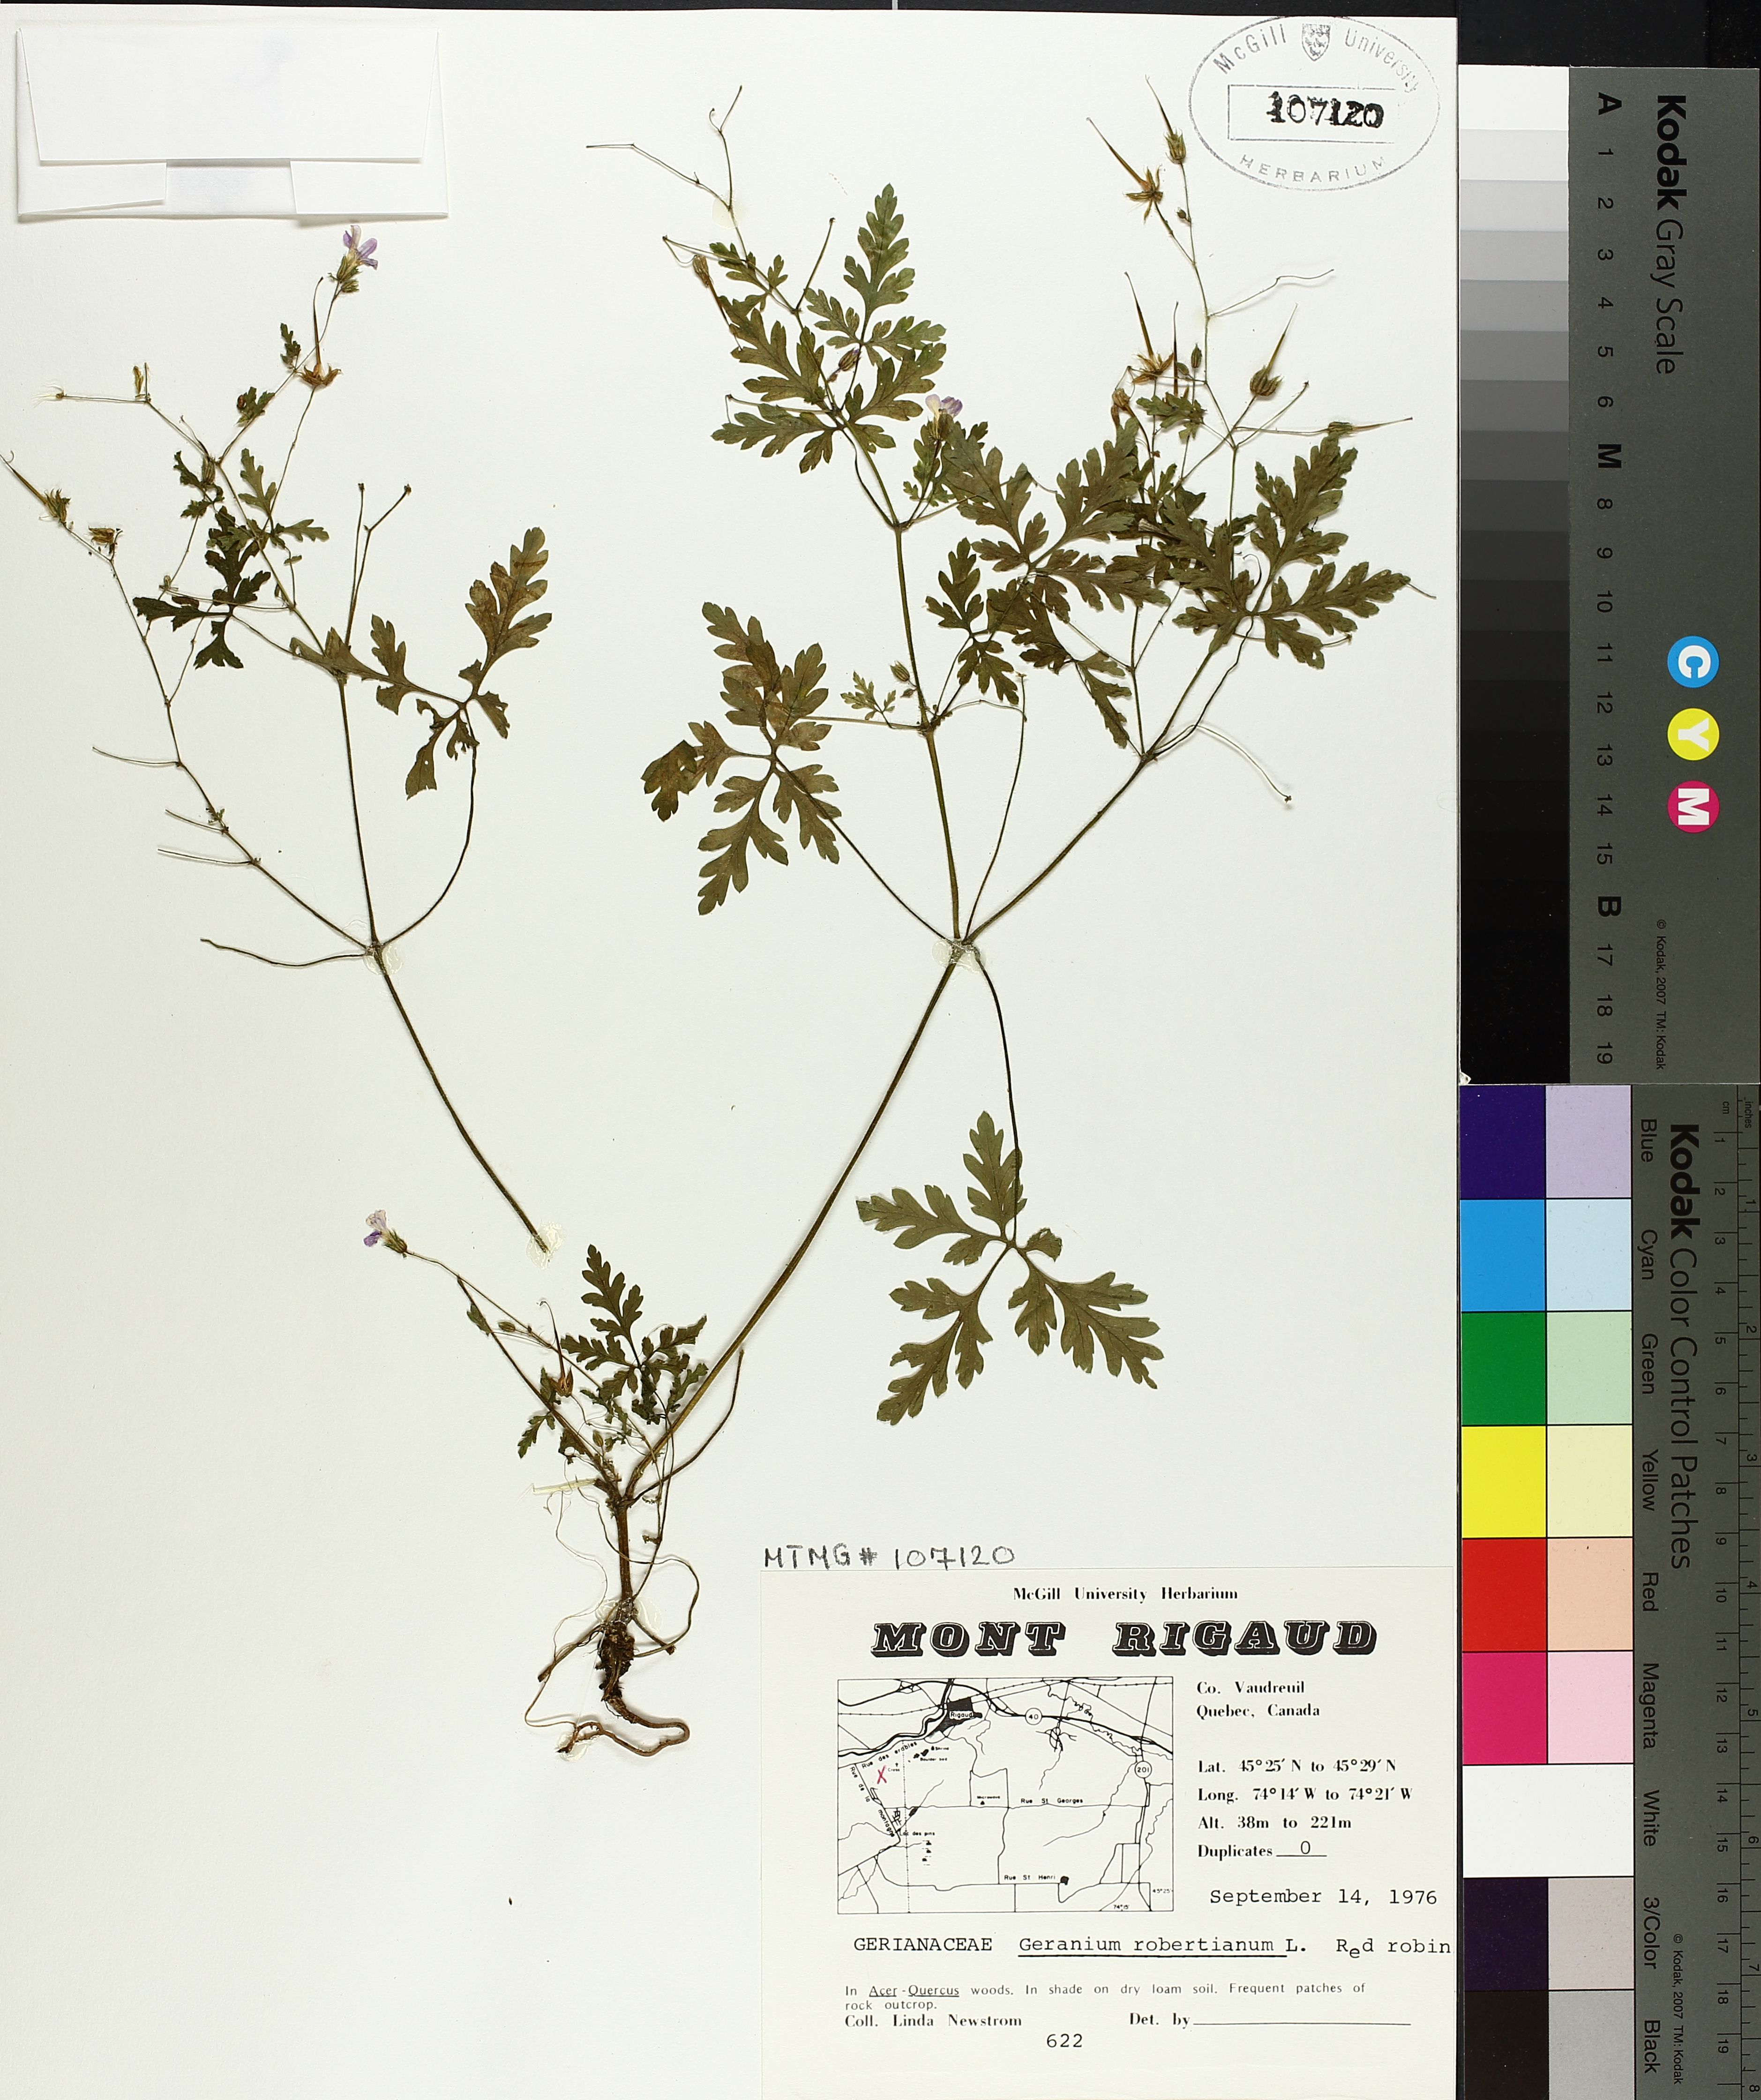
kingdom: Plantae
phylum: Tracheophyta
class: Magnoliopsida
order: Geraniales
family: Geraniaceae
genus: Geranium
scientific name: Geranium robertianum
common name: Herb-robert
